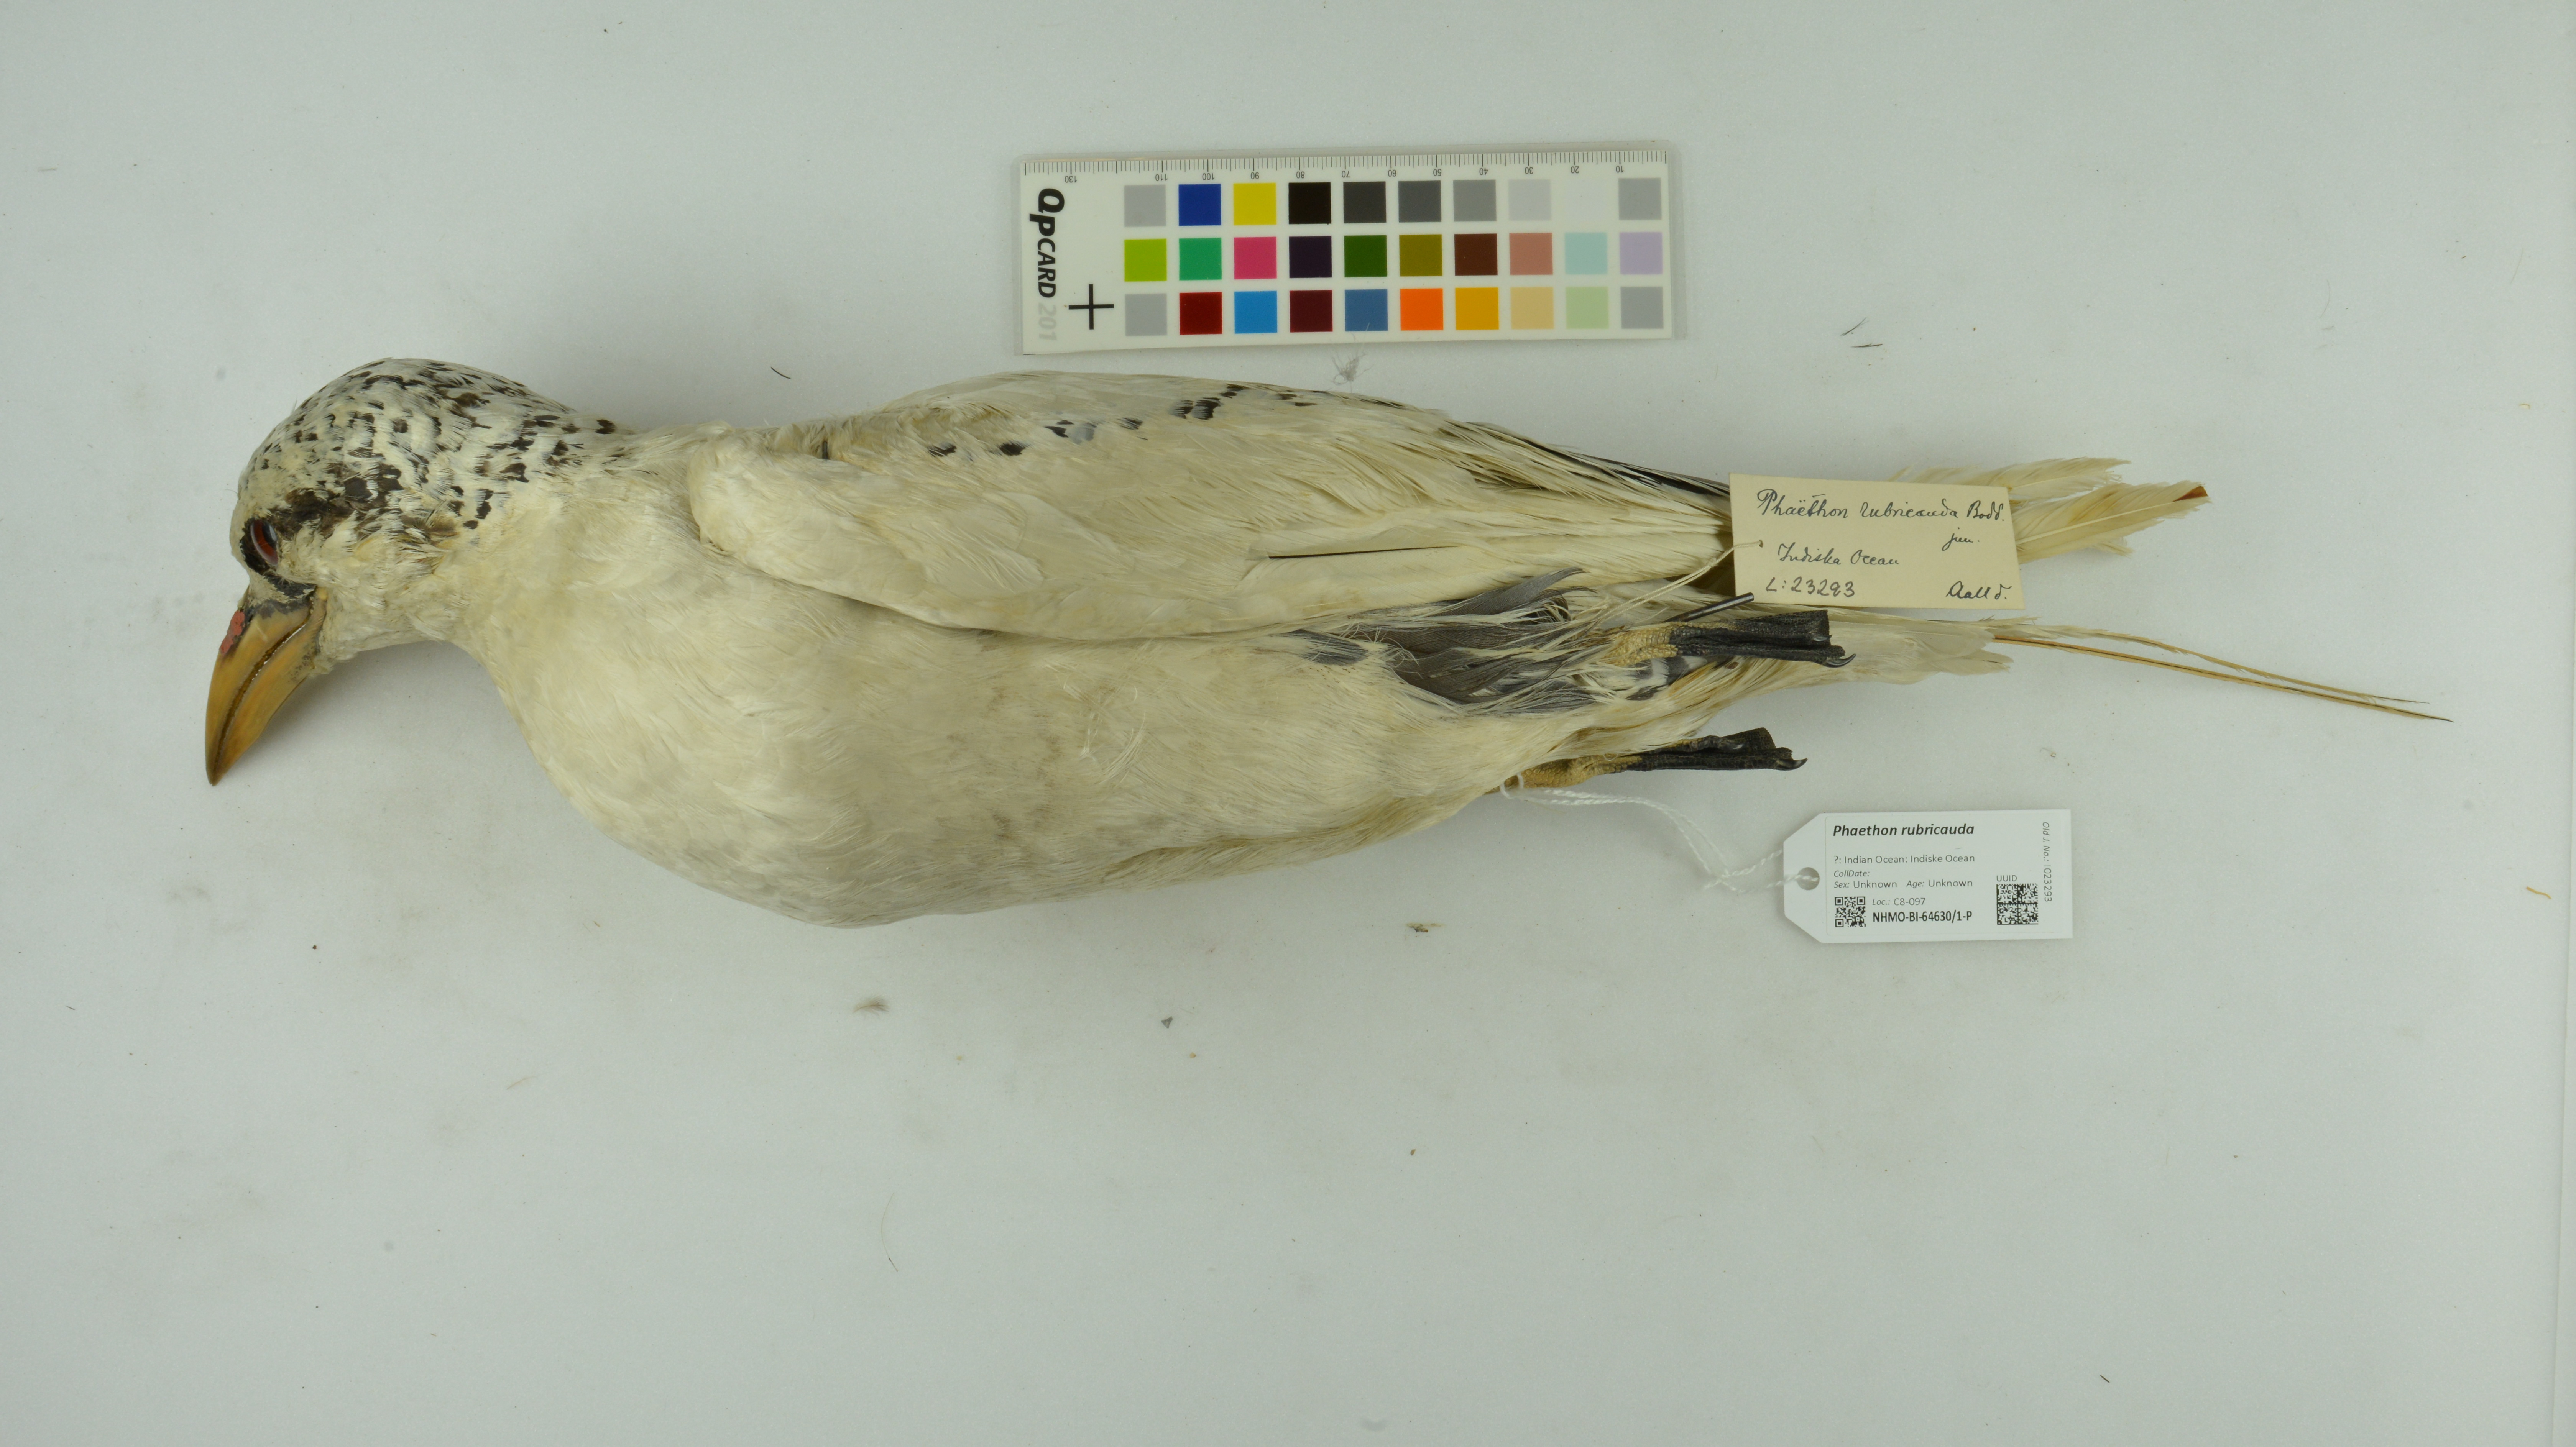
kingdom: Animalia
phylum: Chordata
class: Aves
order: Phaethontiformes
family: Phaethontidae
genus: Phaethon
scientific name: Phaethon rubricauda
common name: Red-tailed tropicbird
